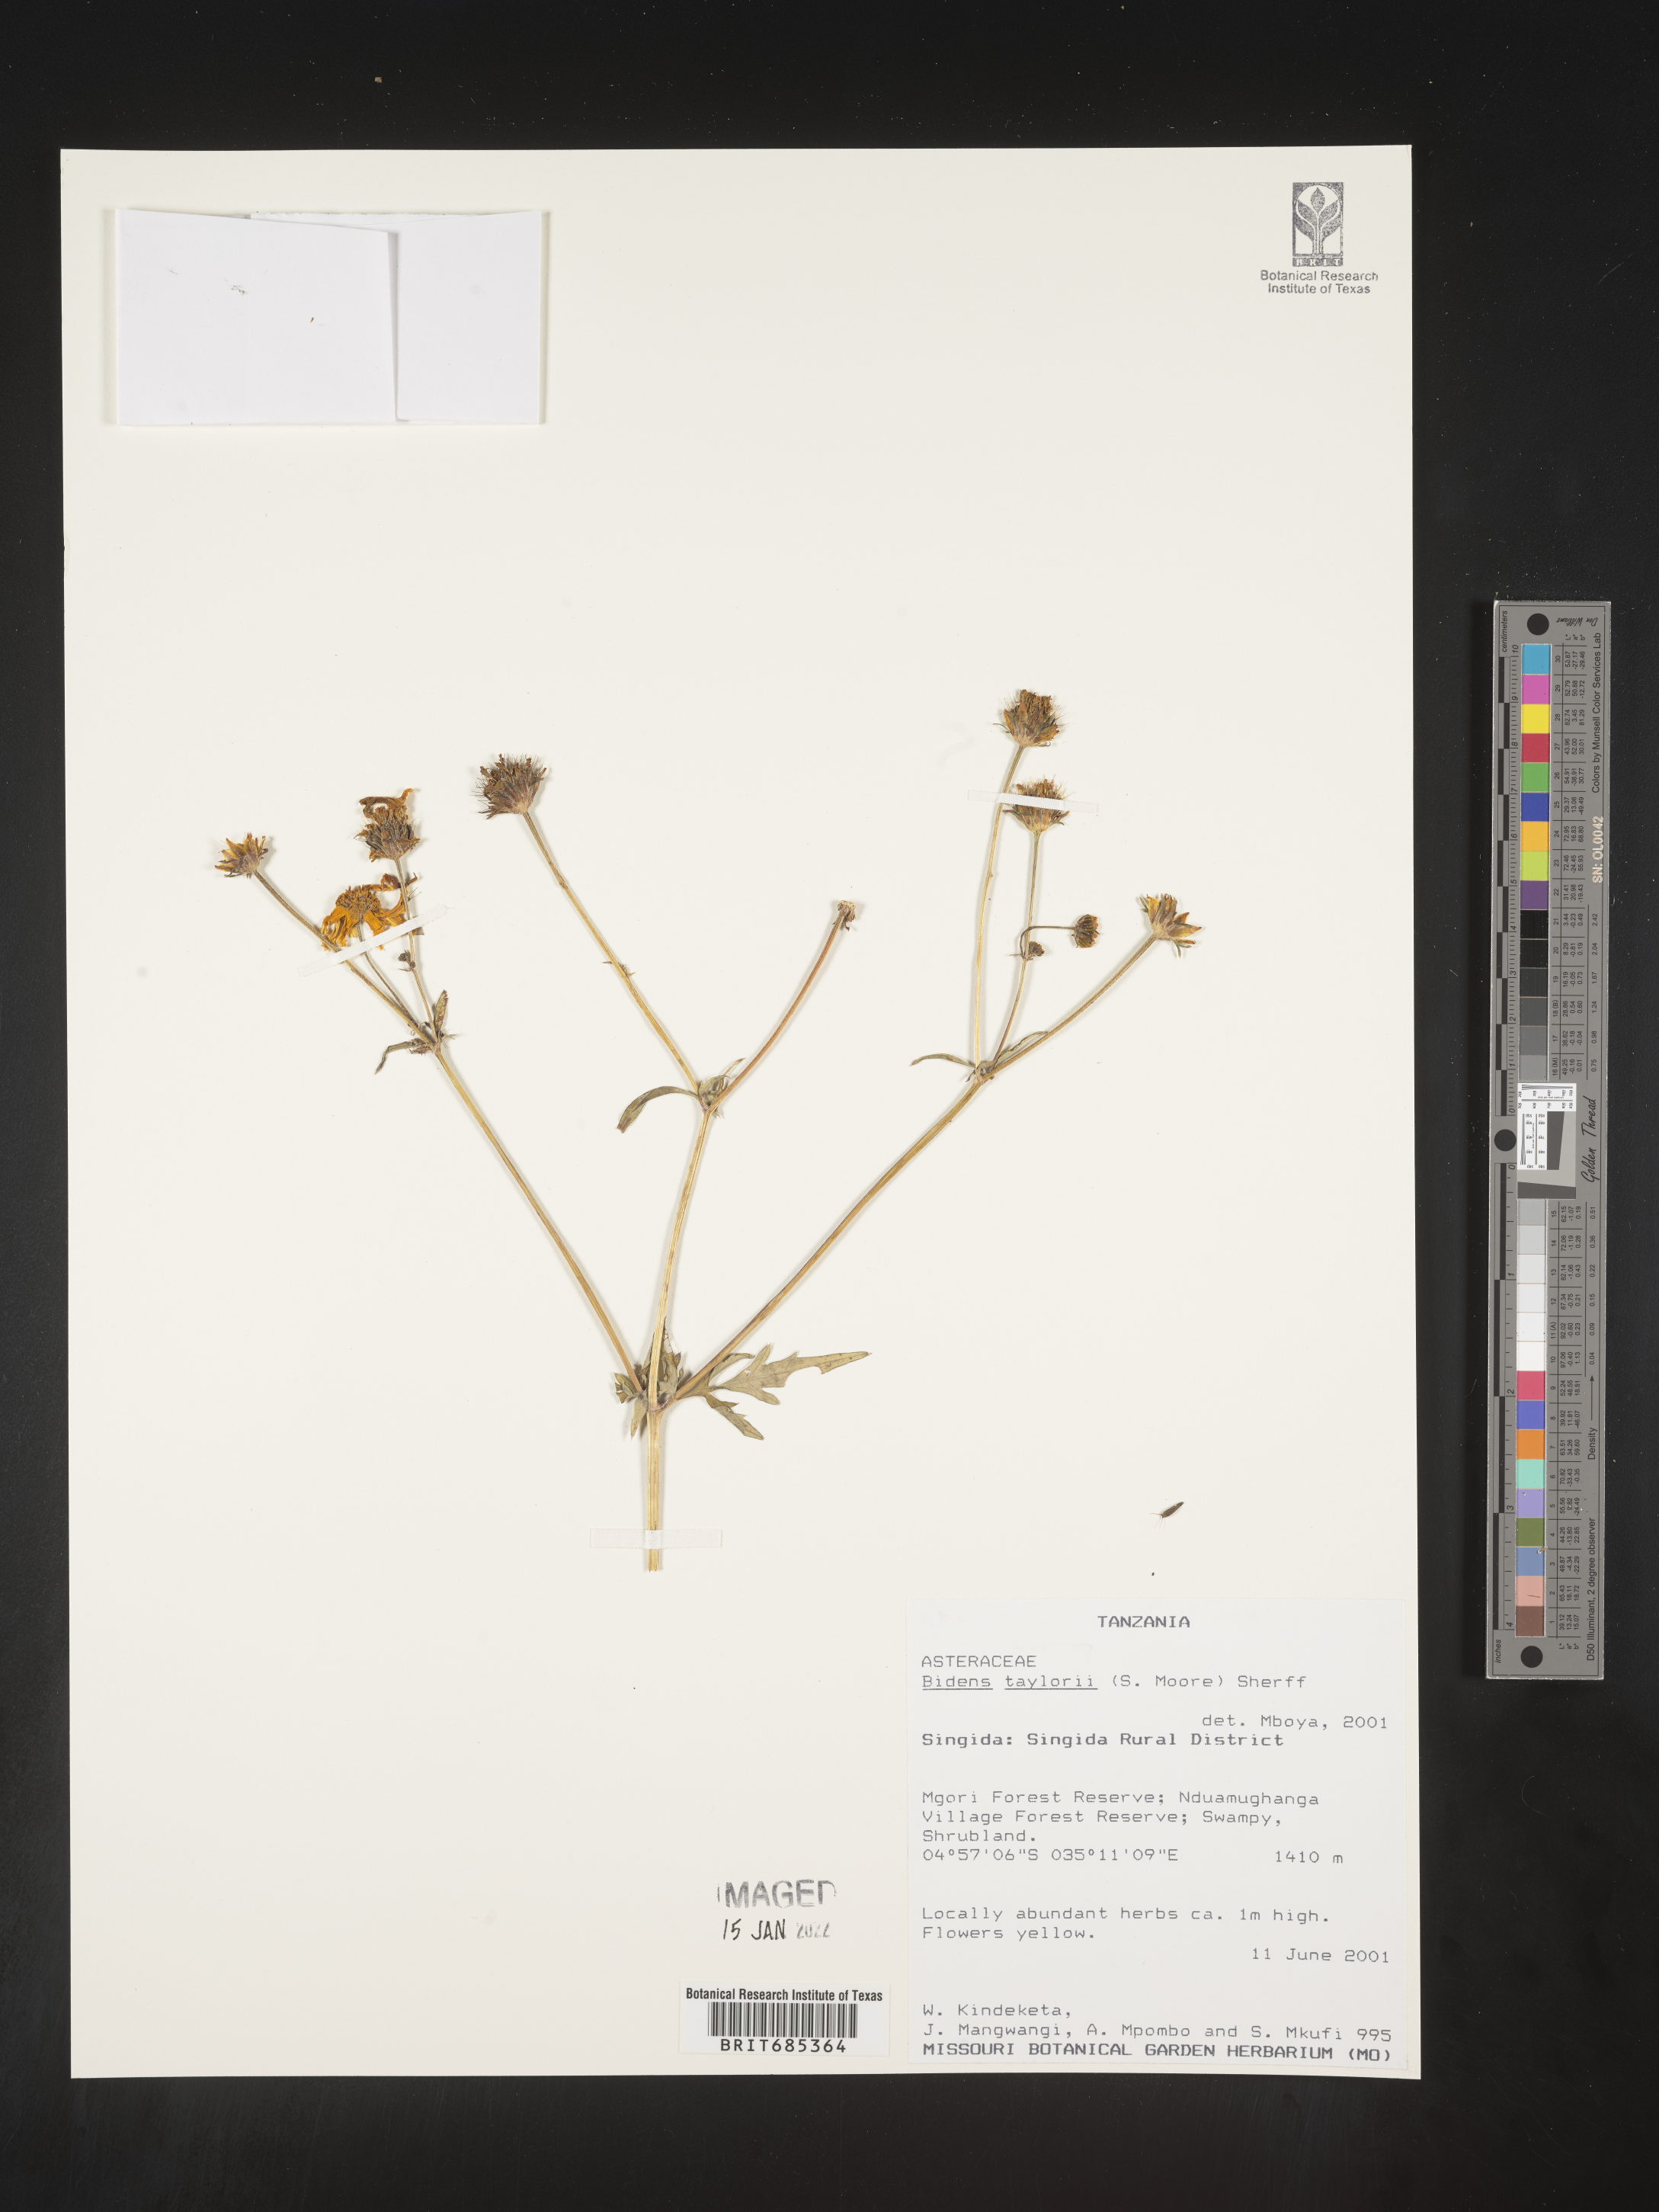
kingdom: Plantae
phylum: Tracheophyta
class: Magnoliopsida
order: Asterales
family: Asteraceae
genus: Bidens
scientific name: Bidens
